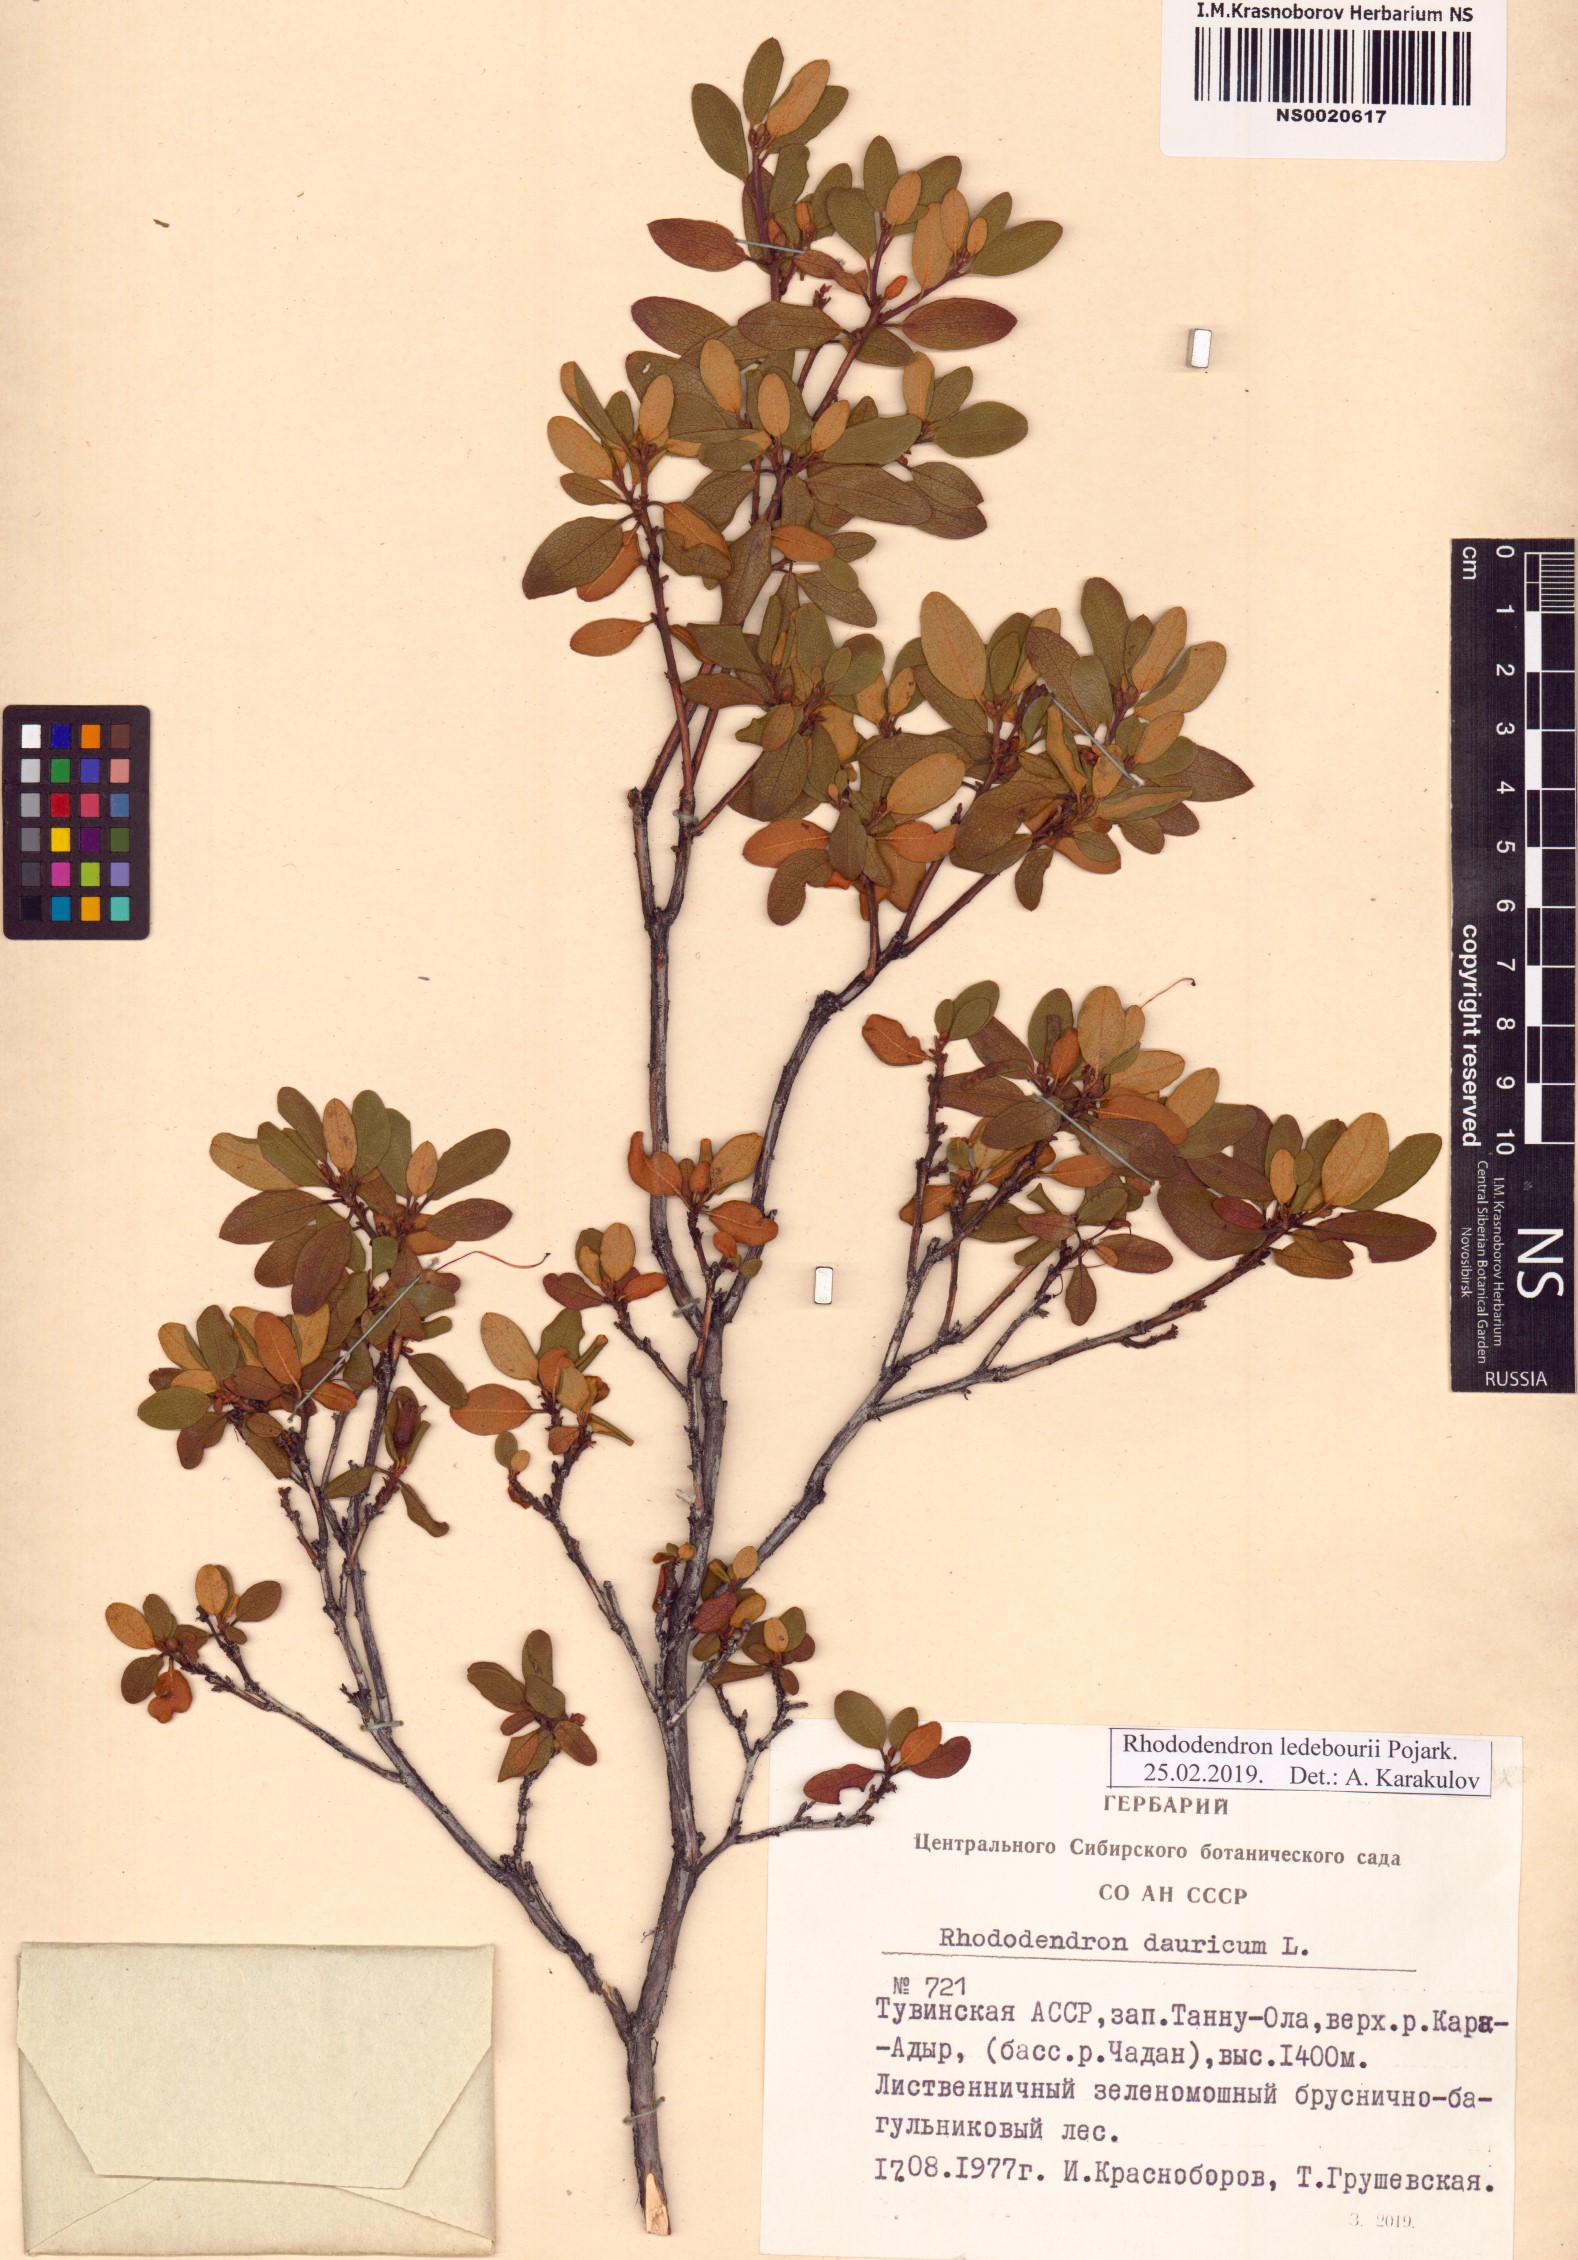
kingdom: Plantae
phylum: Tracheophyta
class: Magnoliopsida
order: Ericales
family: Ericaceae
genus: Rhododendron
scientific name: Rhododendron dauricum
